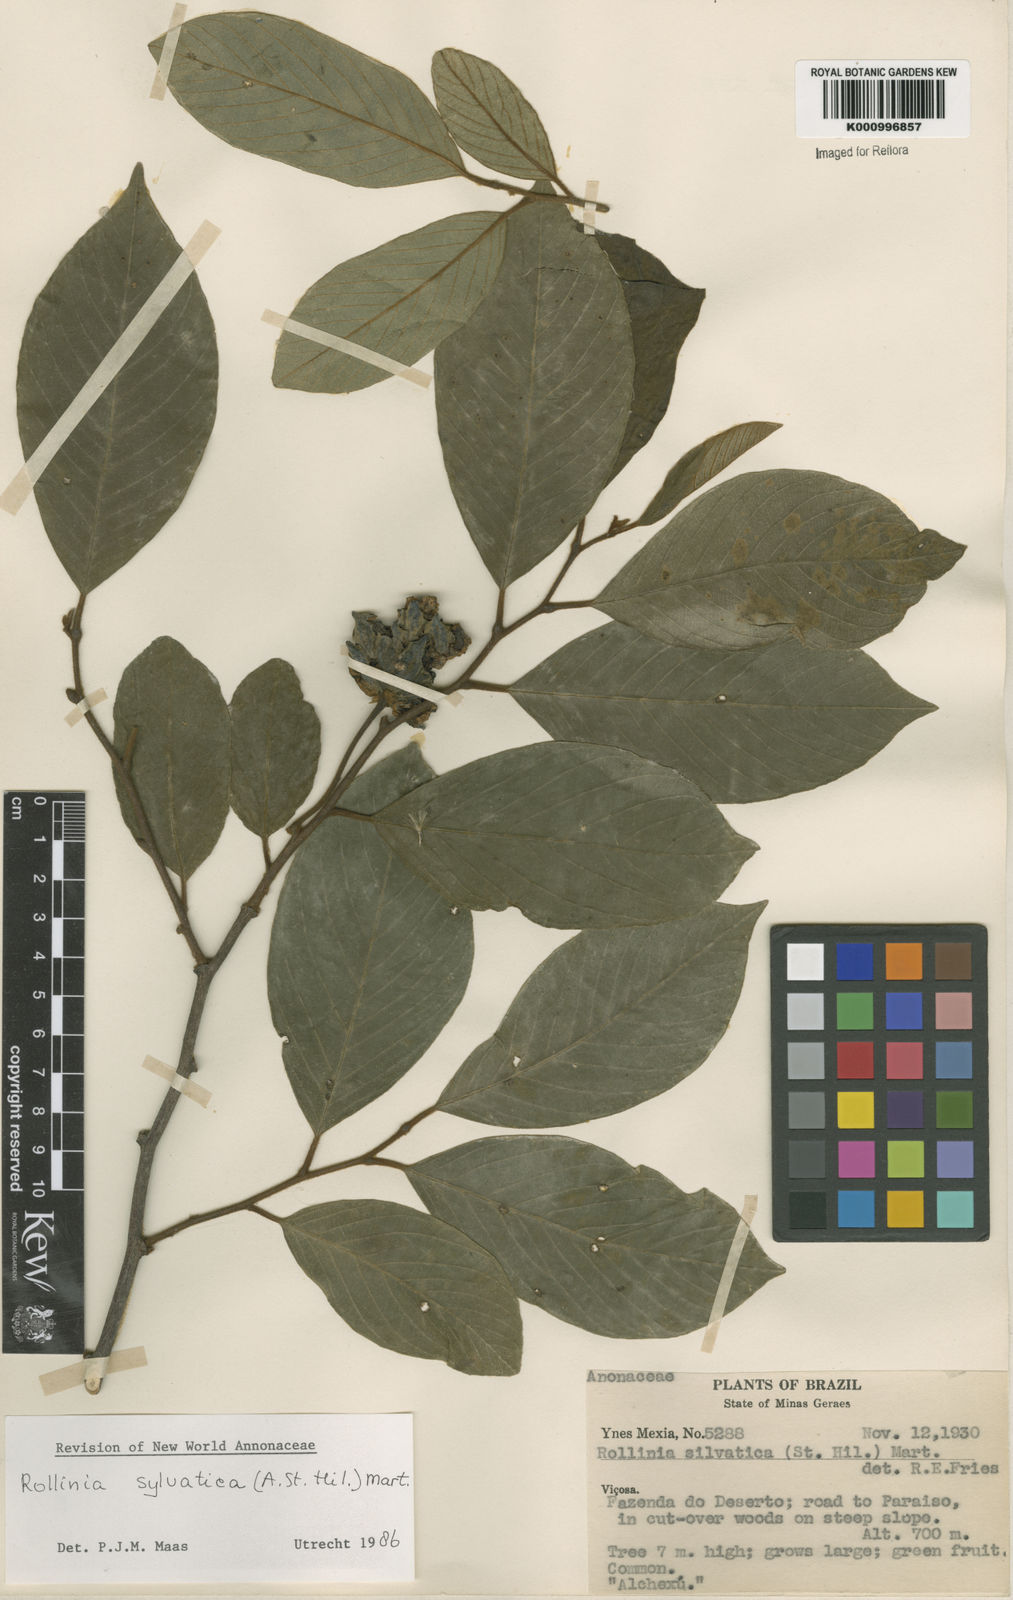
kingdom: Plantae
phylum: Tracheophyta
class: Magnoliopsida
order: Magnoliales
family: Annonaceae
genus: Annona
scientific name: Annona sylvatica
